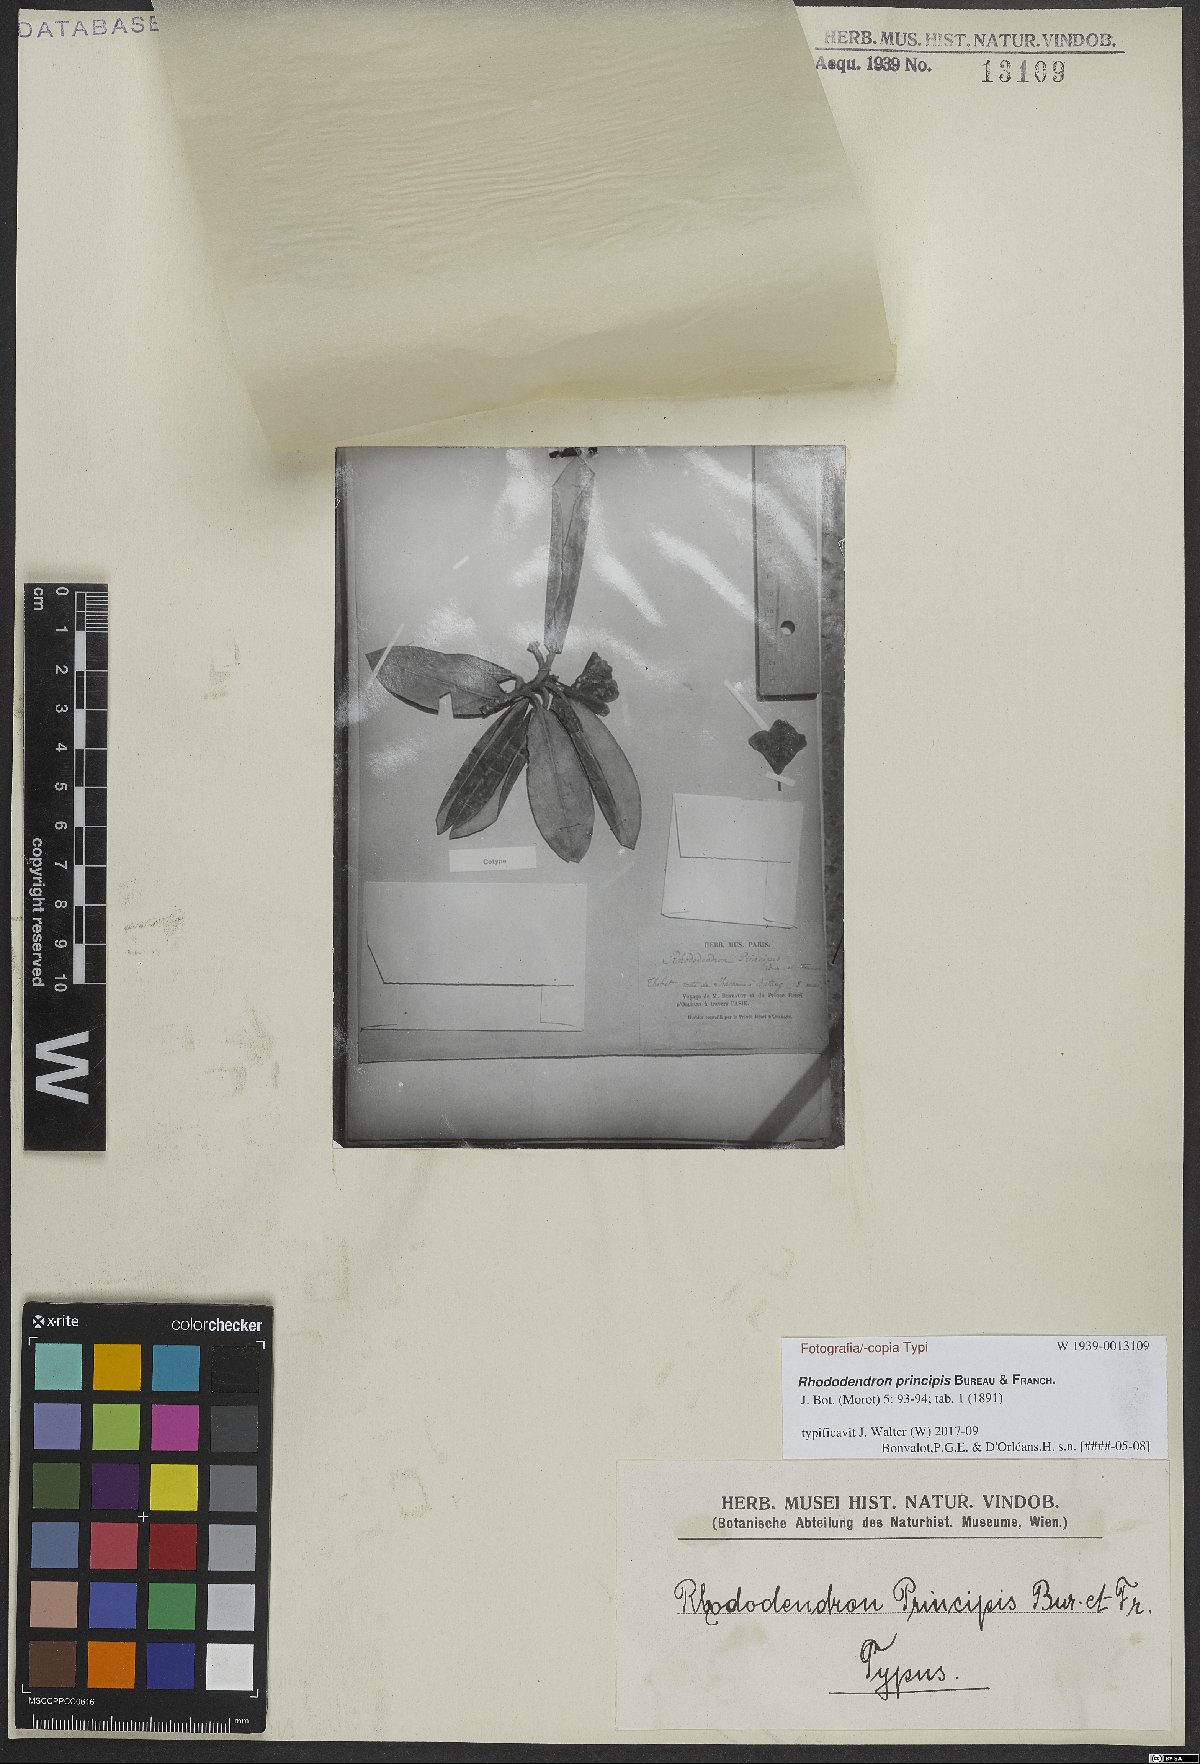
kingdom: Plantae
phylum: Tracheophyta
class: Magnoliopsida
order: Ericales
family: Ericaceae
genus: Rhododendron
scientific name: Rhododendron principis
